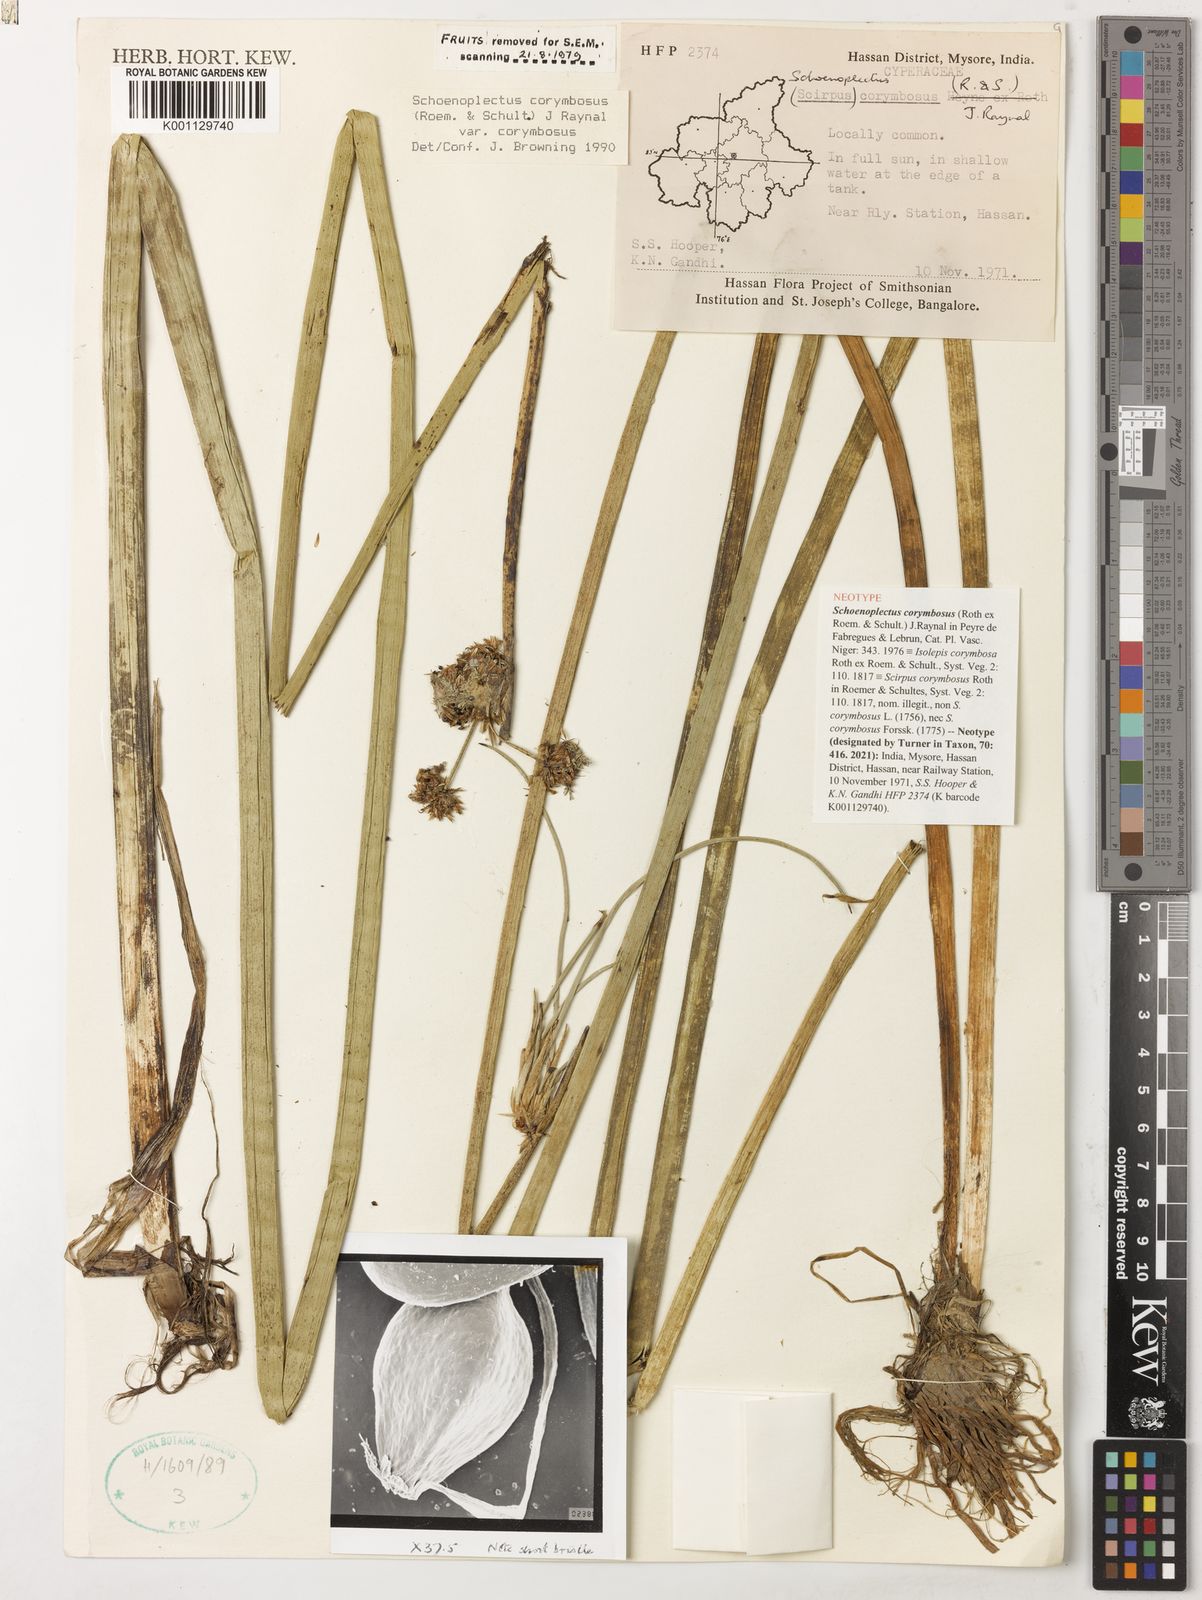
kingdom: Plantae
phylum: Tracheophyta
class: Liliopsida
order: Poales
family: Cyperaceae
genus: Schoenoplectiella
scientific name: Schoenoplectiella corymbosa
